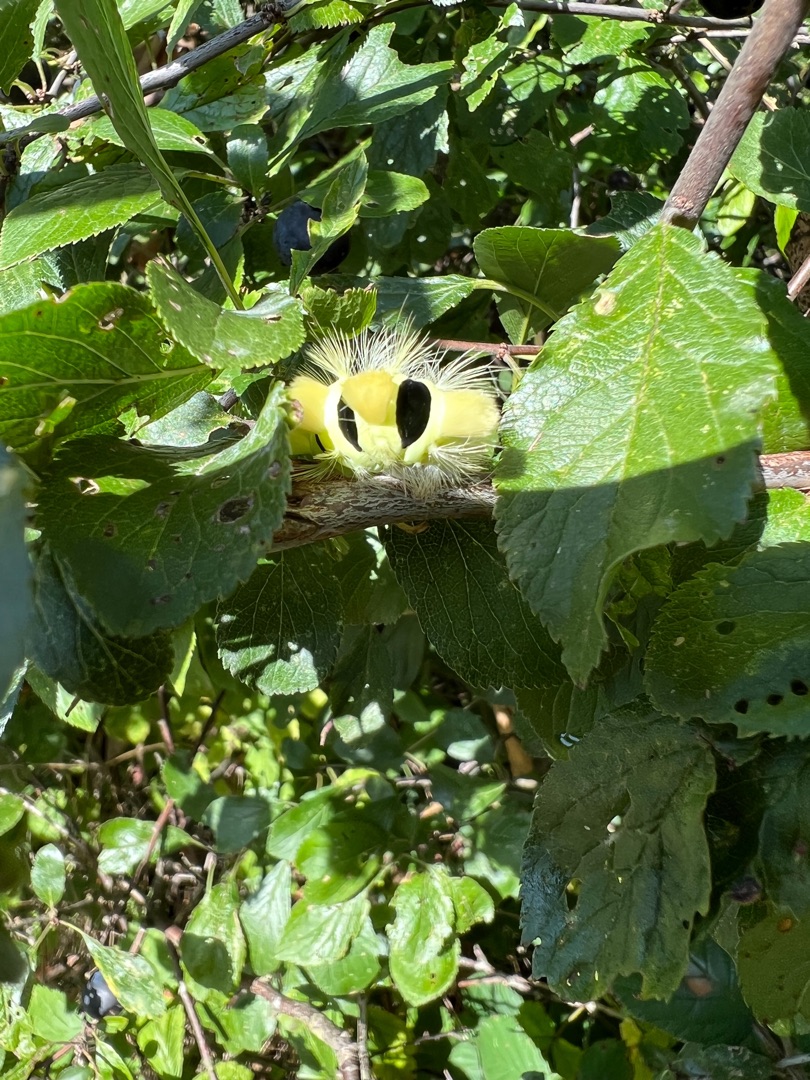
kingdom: Animalia
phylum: Arthropoda
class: Insecta
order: Lepidoptera
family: Erebidae
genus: Calliteara
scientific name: Calliteara pudibunda
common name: Bøgenonne
